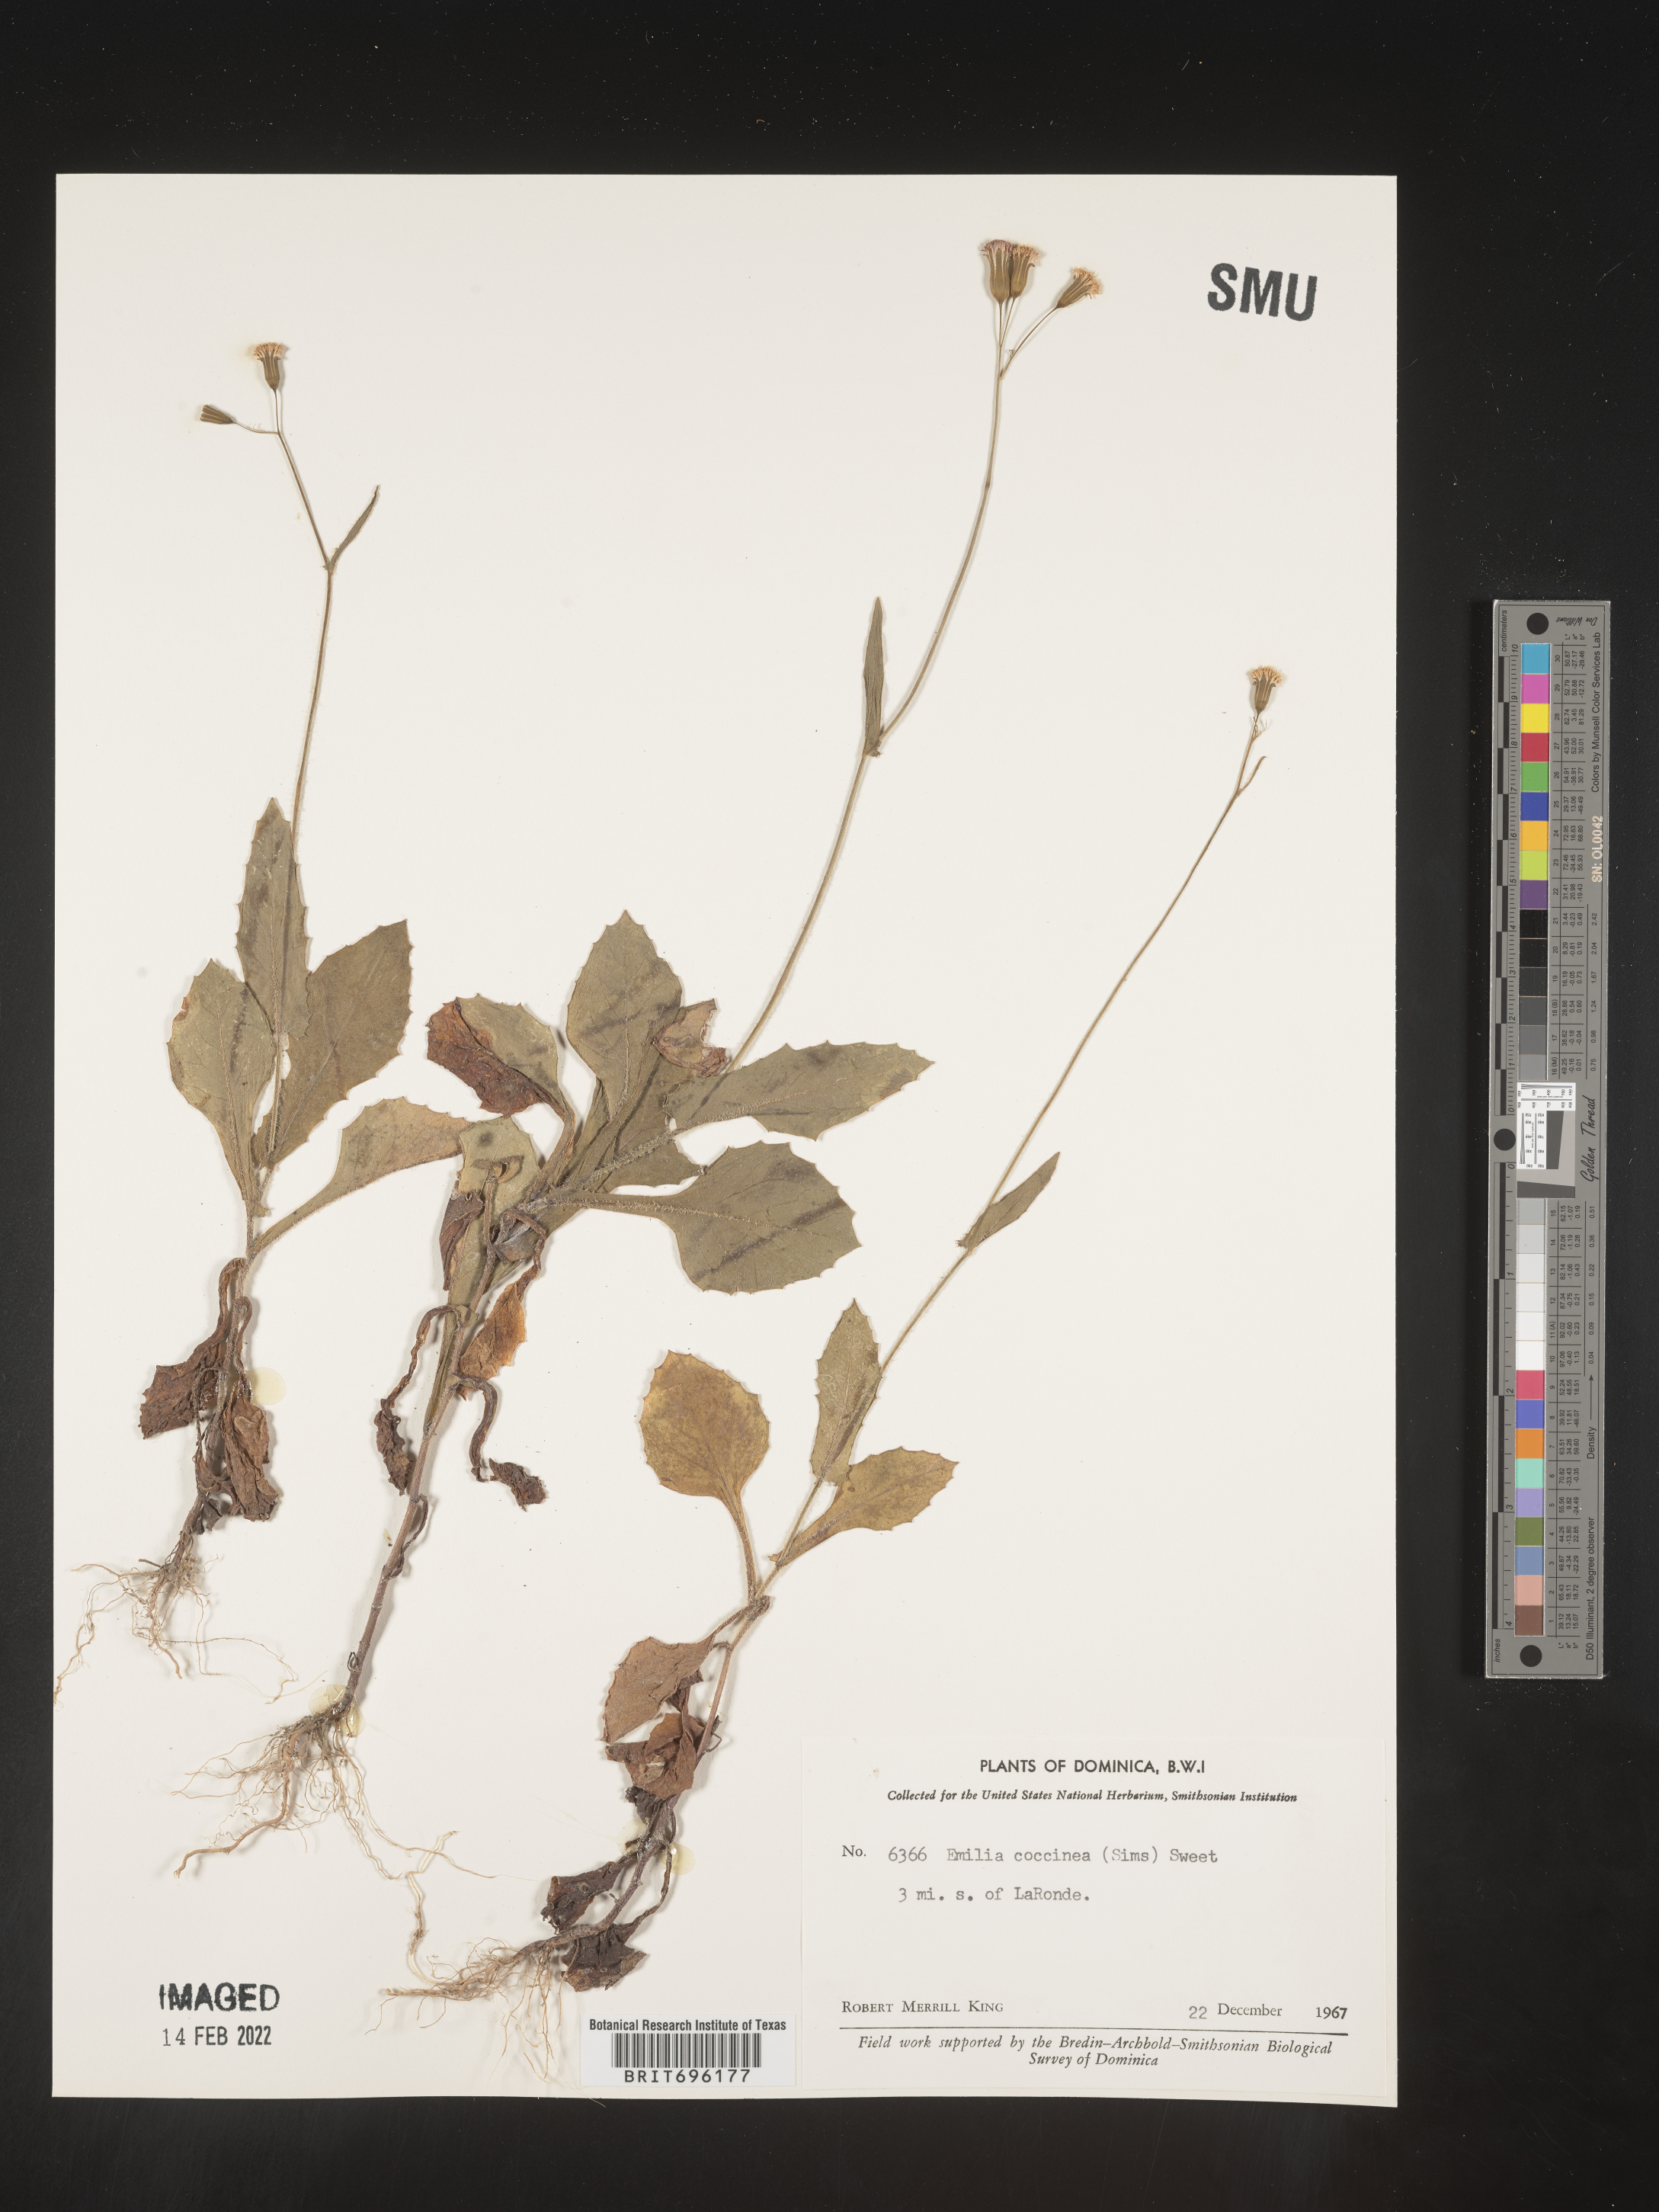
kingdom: Plantae
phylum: Tracheophyta
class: Magnoliopsida
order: Asterales
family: Asteraceae
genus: Emilia
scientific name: Emilia
